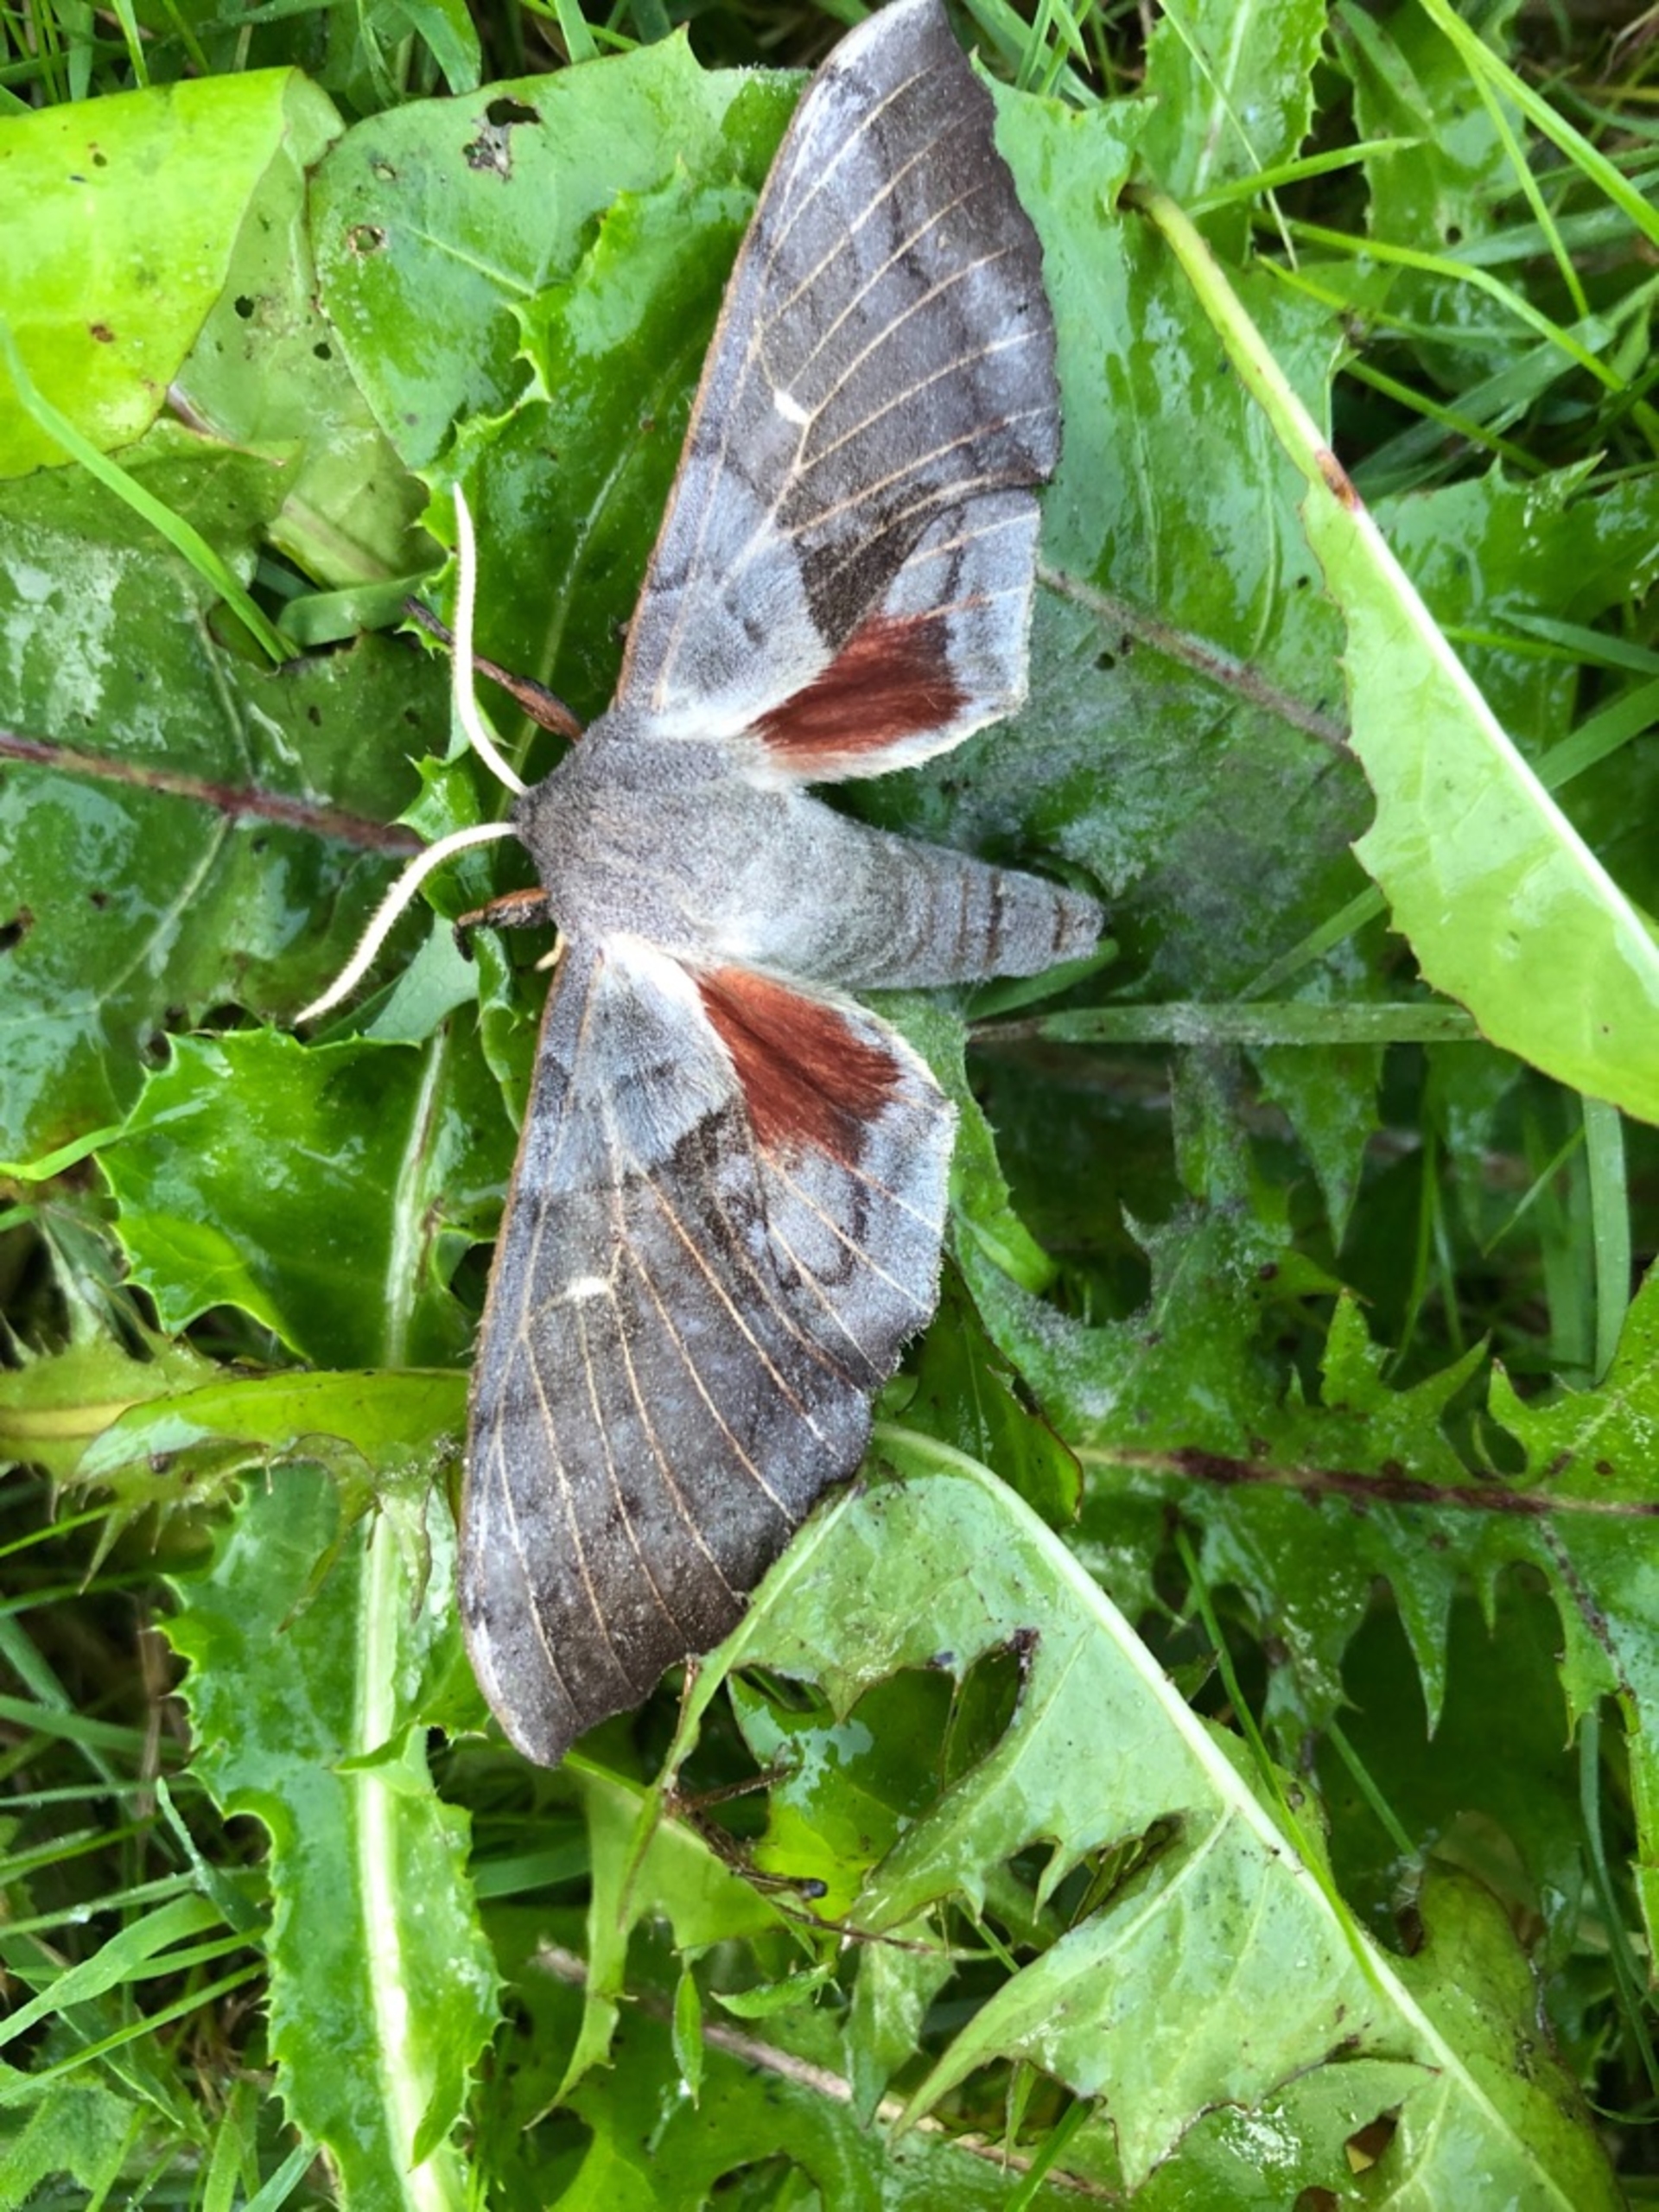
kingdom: Animalia
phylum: Arthropoda
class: Insecta
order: Lepidoptera
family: Sphingidae
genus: Laothoe
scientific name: Laothoe populi
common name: Poppelsværmer
